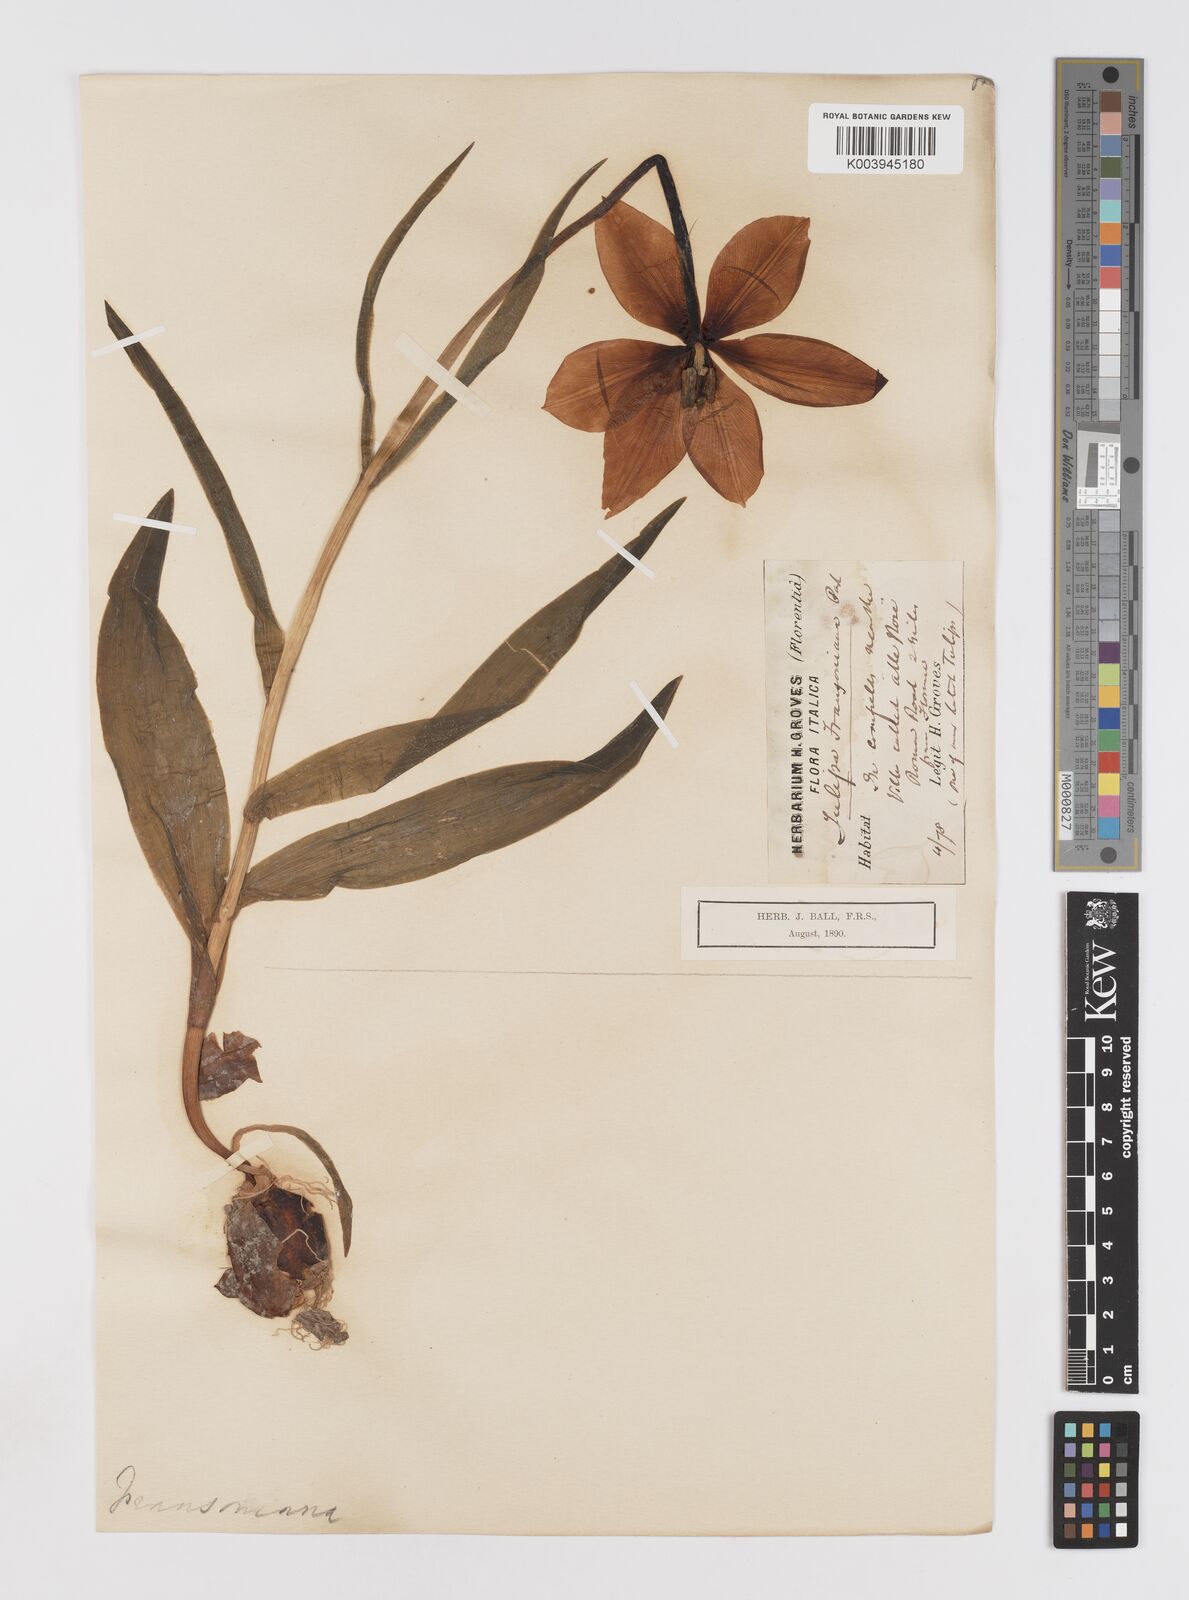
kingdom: Plantae
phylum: Tracheophyta
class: Liliopsida
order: Liliales
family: Liliaceae
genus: Tulipa
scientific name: Tulipa gesneriana
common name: Garden tulip
